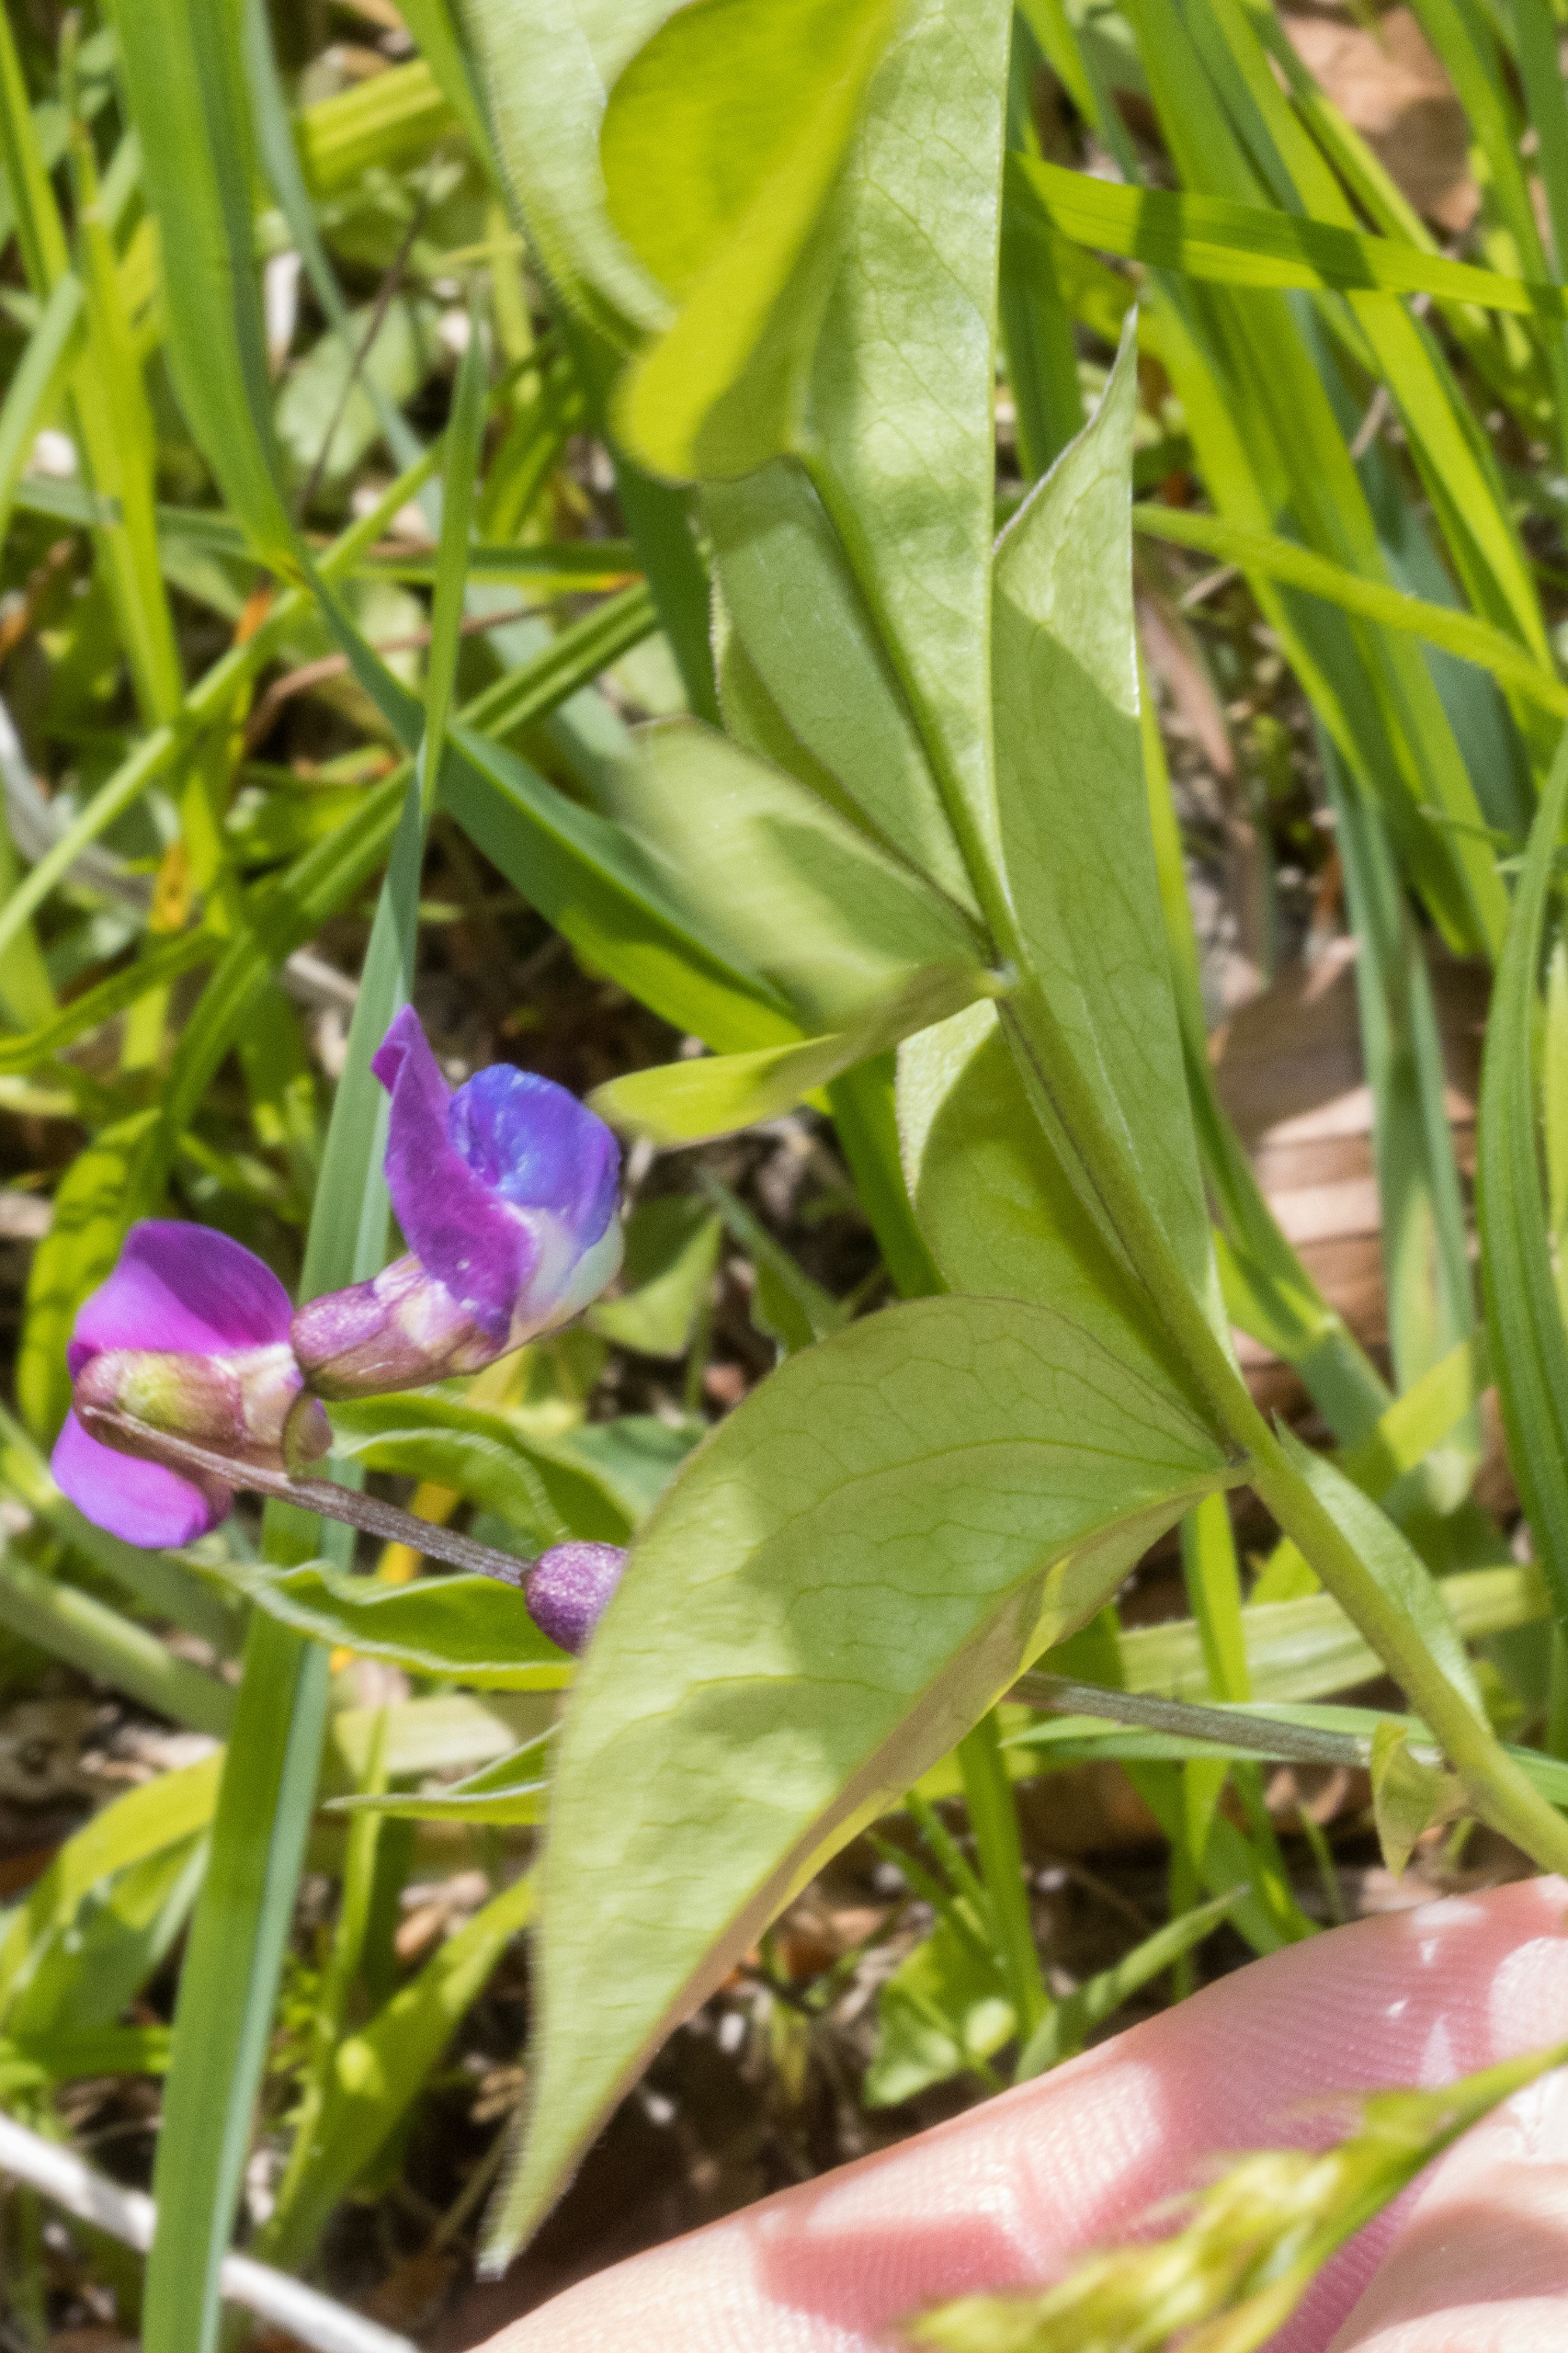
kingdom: Plantae
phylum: Tracheophyta
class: Magnoliopsida
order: Fabales
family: Fabaceae
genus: Lathyrus
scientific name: Lathyrus vernus
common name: Vår-fladbælg
